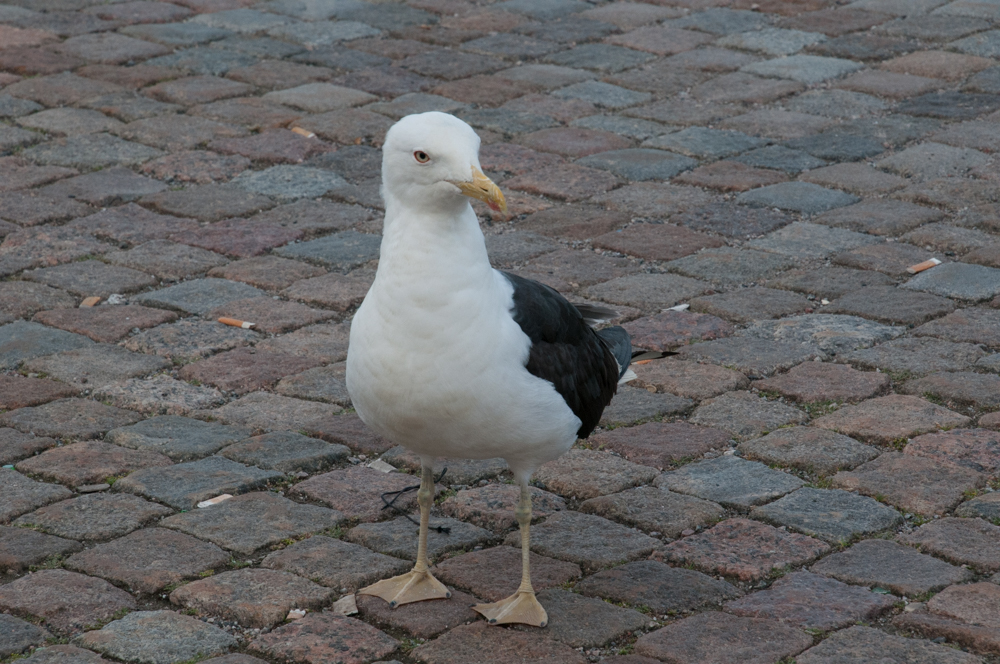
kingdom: Animalia
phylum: Chordata
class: Aves
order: Charadriiformes
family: Laridae
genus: Larus
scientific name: Larus fuscus
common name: Lesser black-backed gull
